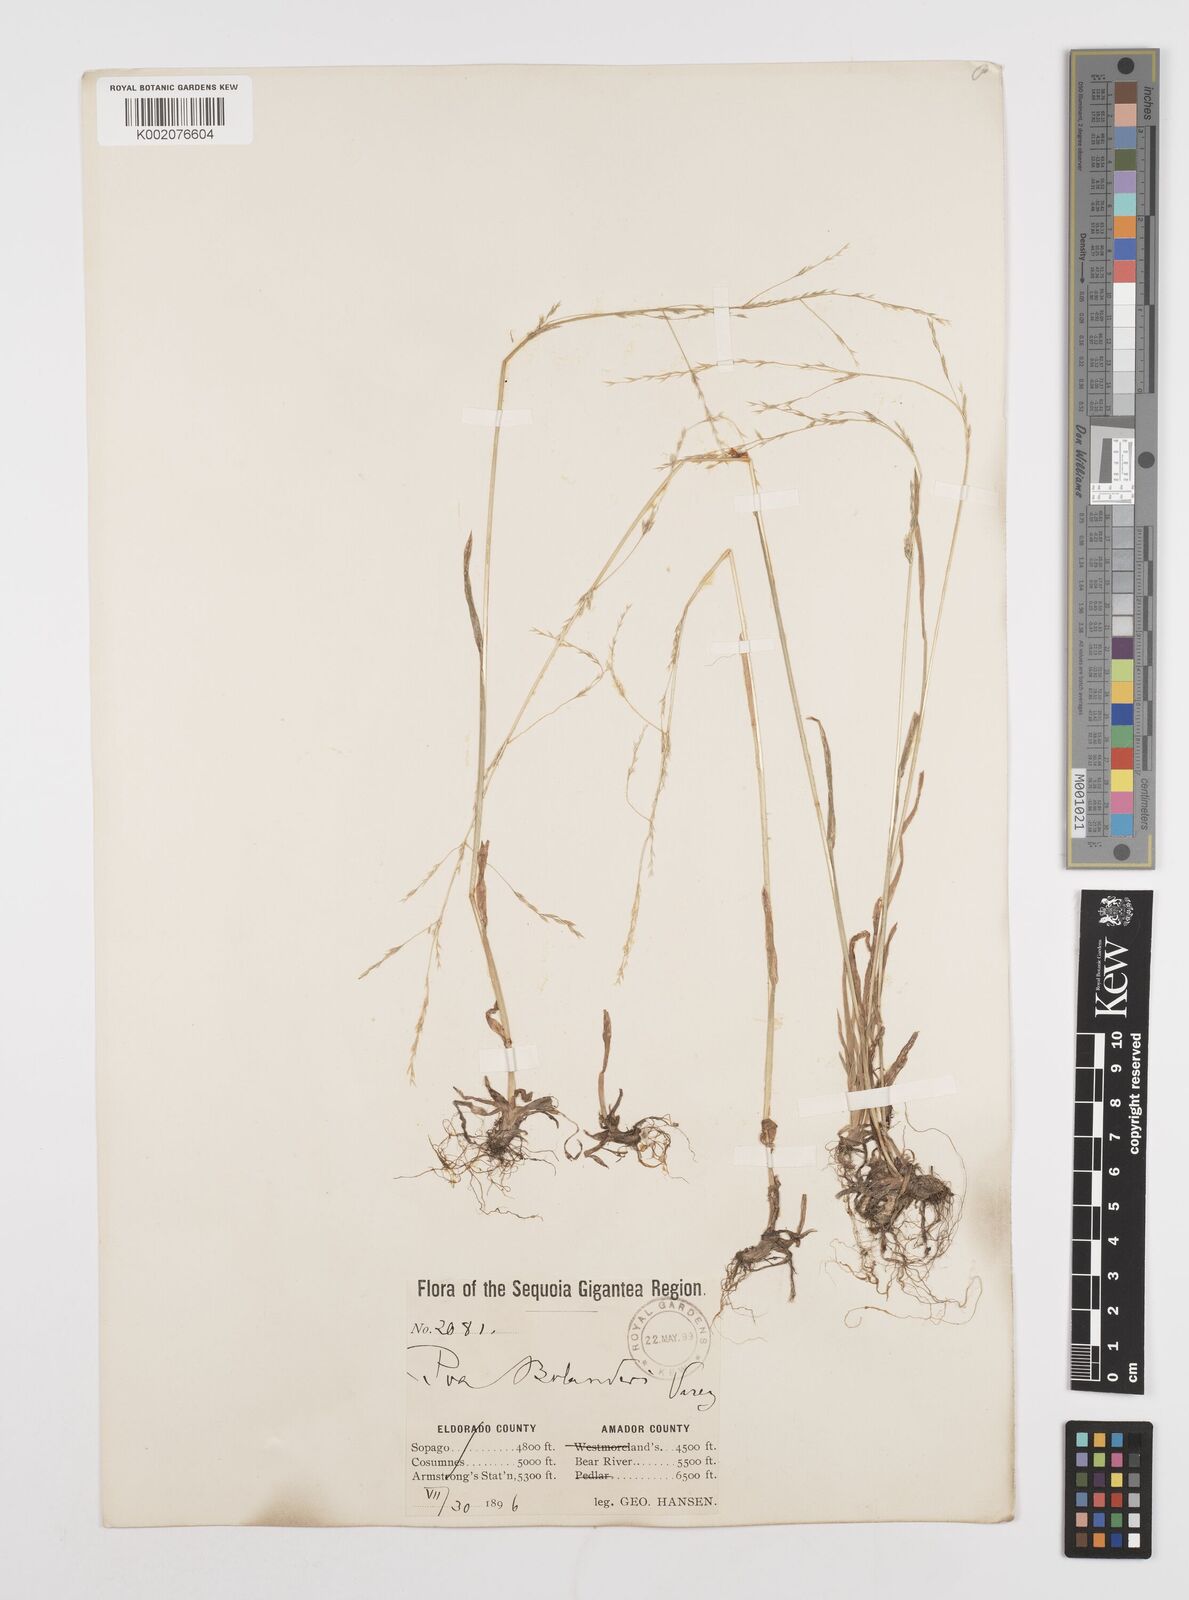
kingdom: Plantae
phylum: Tracheophyta
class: Liliopsida
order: Poales
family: Poaceae
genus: Poa
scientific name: Poa bolanderi
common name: Bolander's bluegrass
